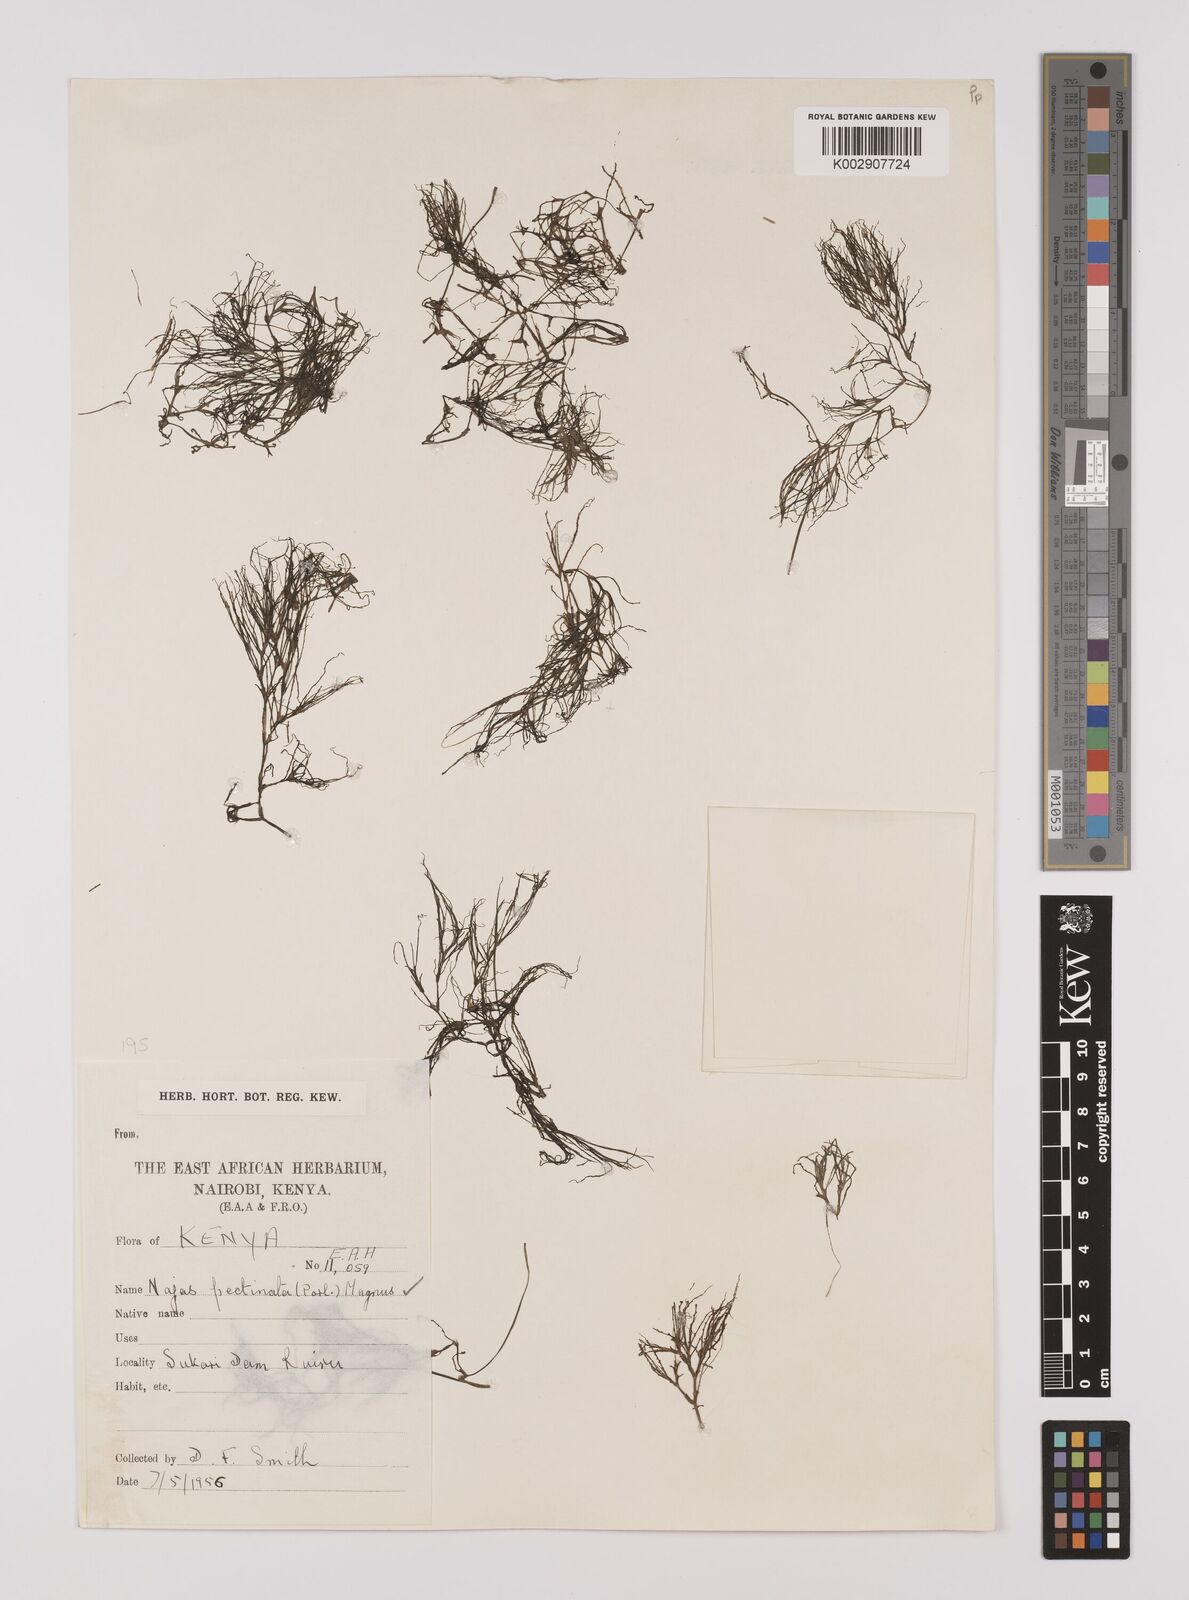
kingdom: Plantae
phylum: Tracheophyta
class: Liliopsida
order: Alismatales
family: Hydrocharitaceae
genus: Najas
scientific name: Najas horrida
